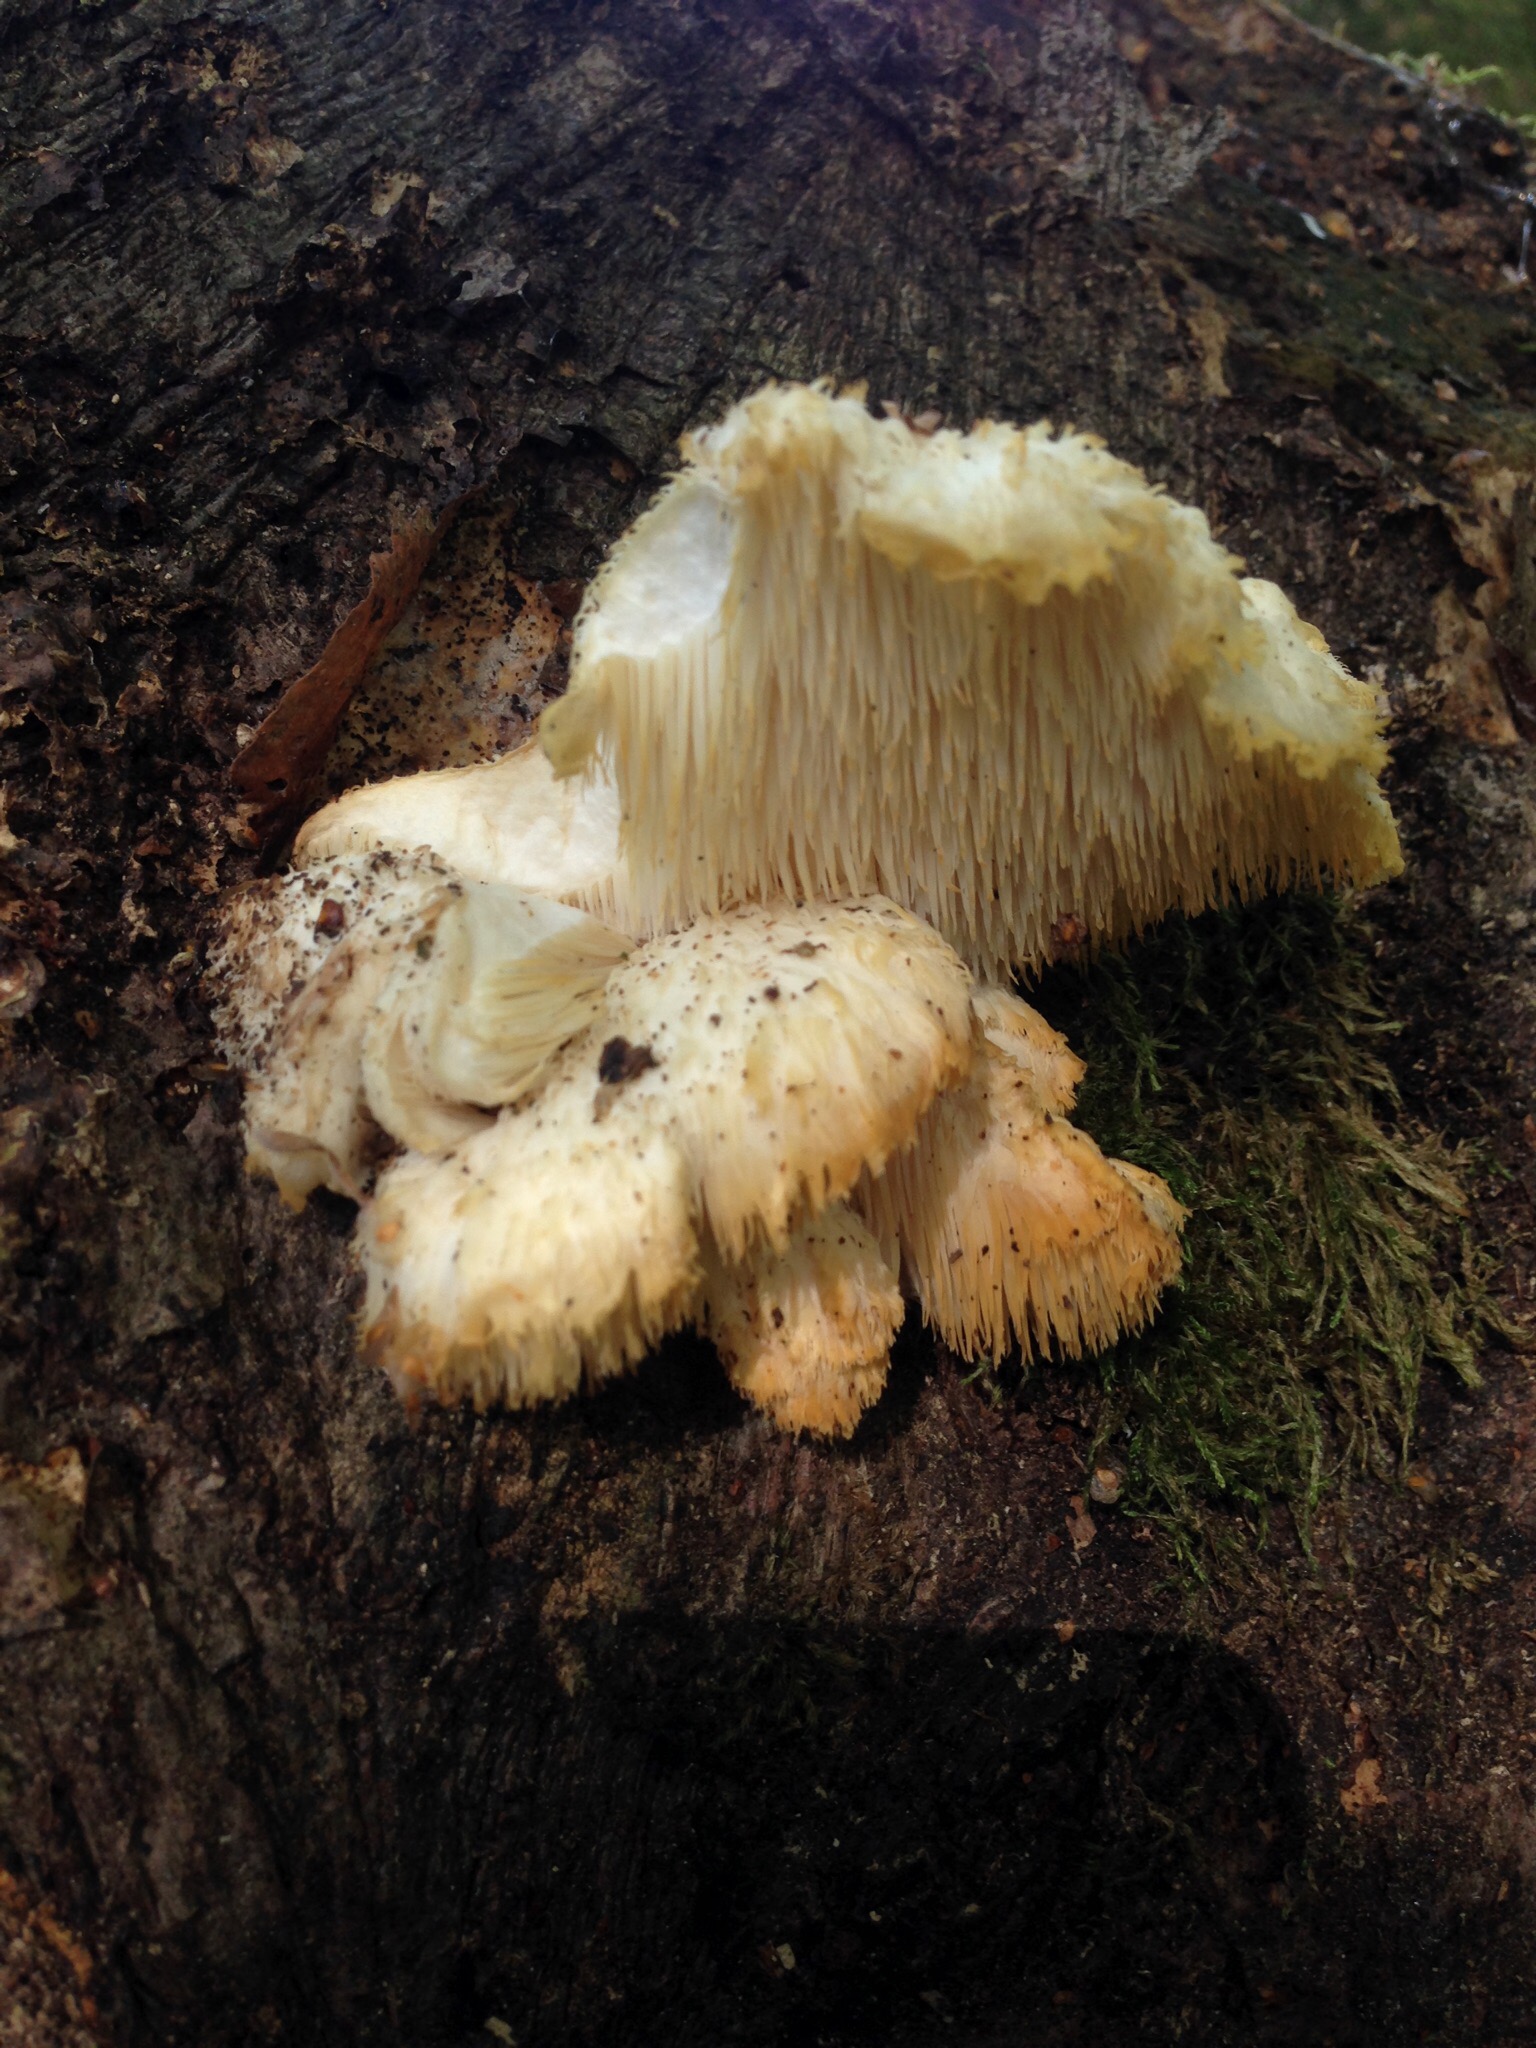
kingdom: Fungi
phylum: Basidiomycota
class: Agaricomycetes
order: Russulales
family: Hericiaceae
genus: Hericium
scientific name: Hericium cirrhatum
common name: børstepigsvamp
